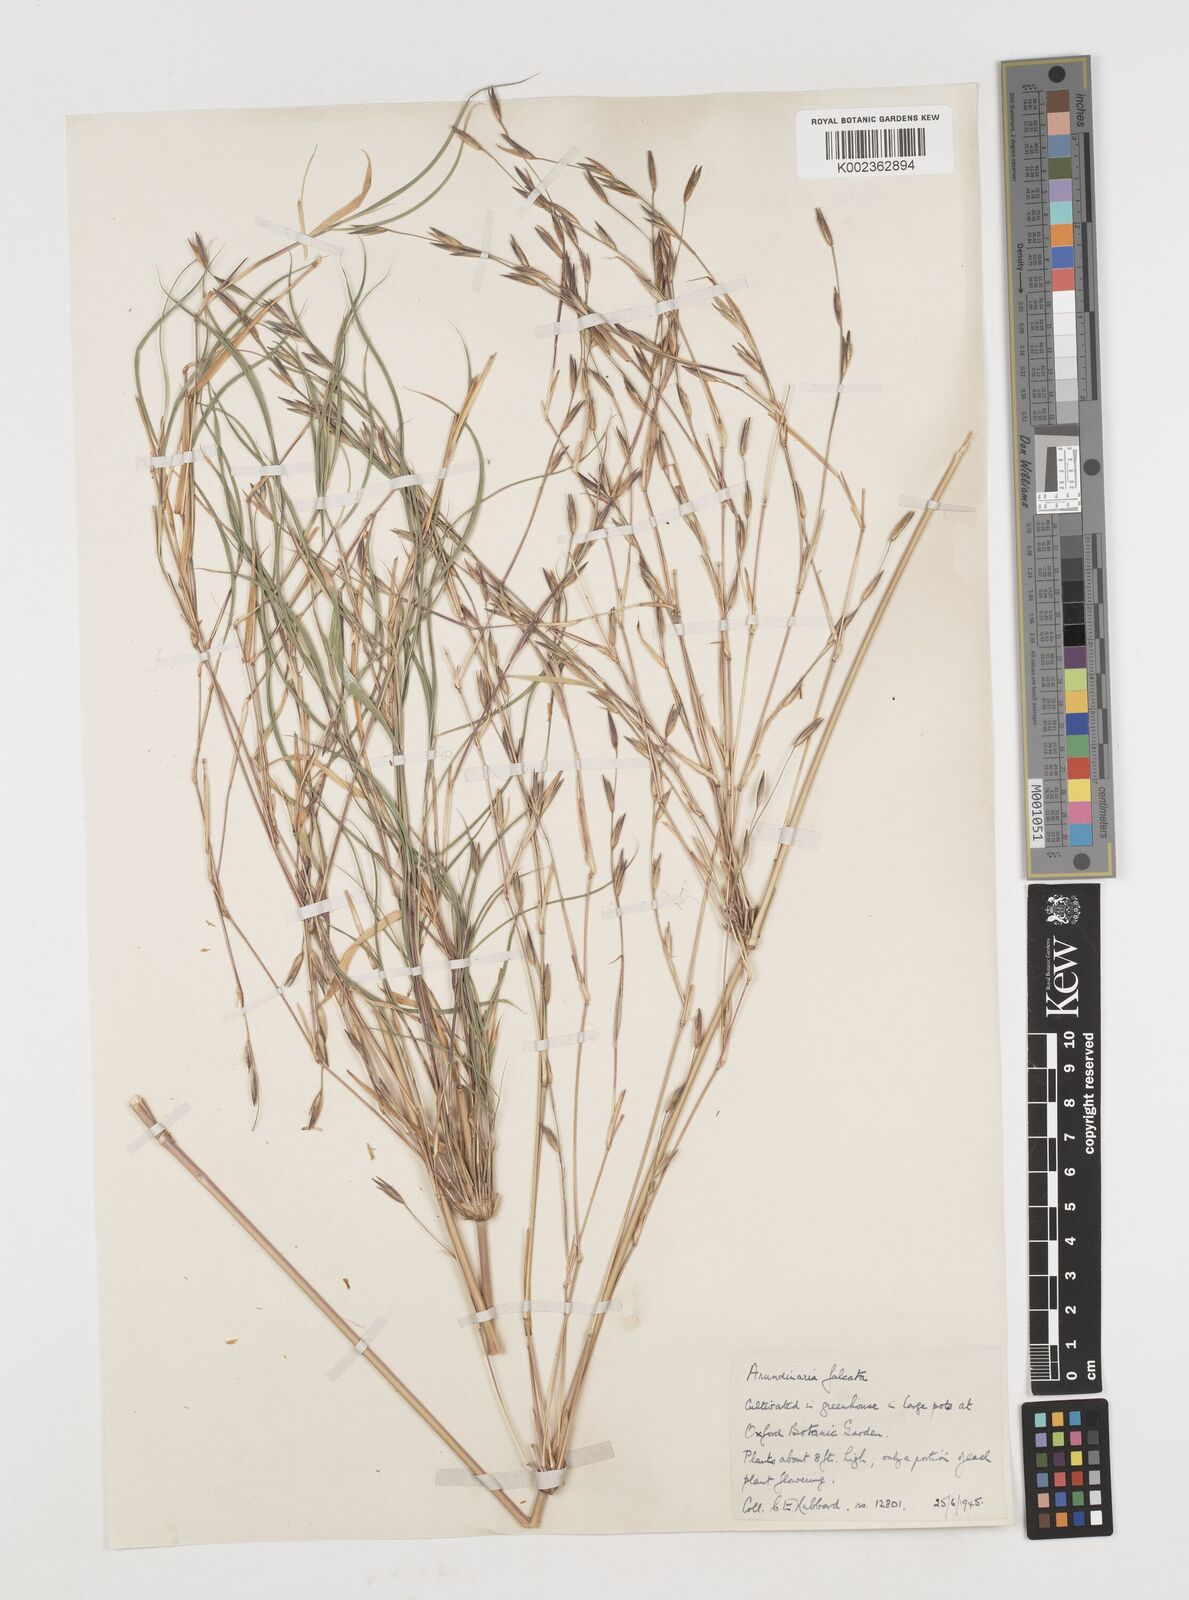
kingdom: Plantae
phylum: Tracheophyta
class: Liliopsida
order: Poales
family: Poaceae
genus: Drepanostachyum
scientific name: Drepanostachyum falcatum
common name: Himalayan bamboo
